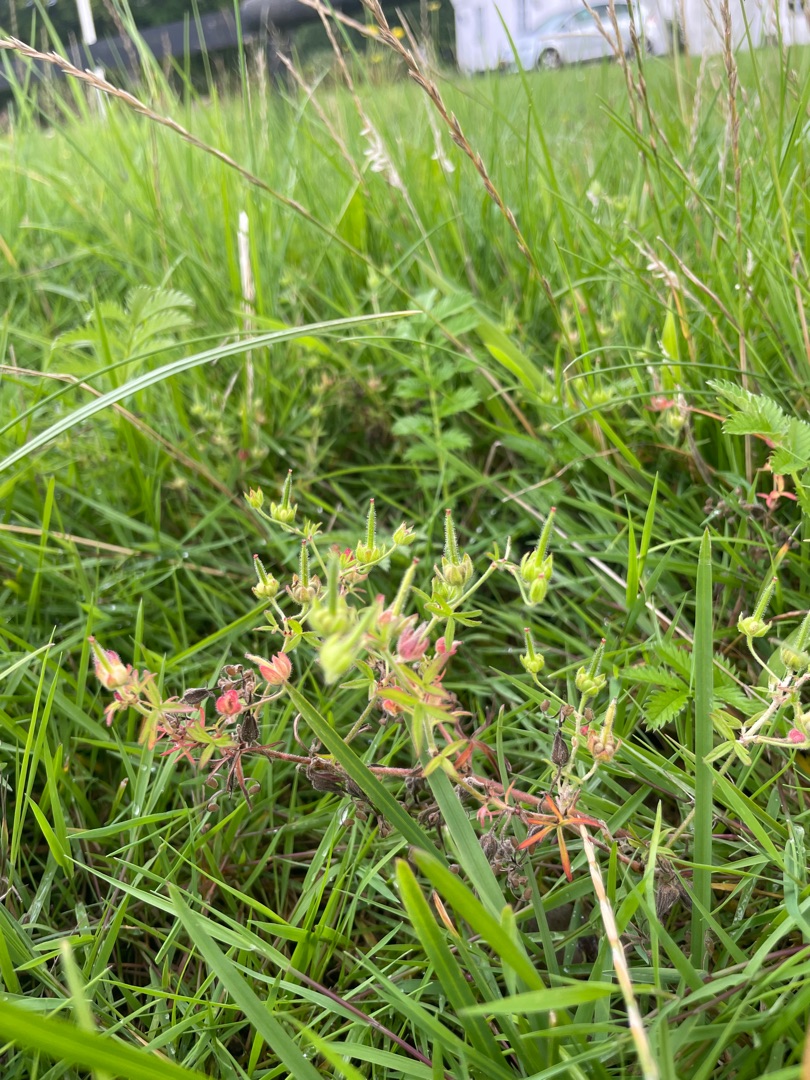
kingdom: Plantae
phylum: Tracheophyta
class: Magnoliopsida
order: Geraniales
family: Geraniaceae
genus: Geranium
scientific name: Geranium dissectum
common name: Kløftet storkenæb
